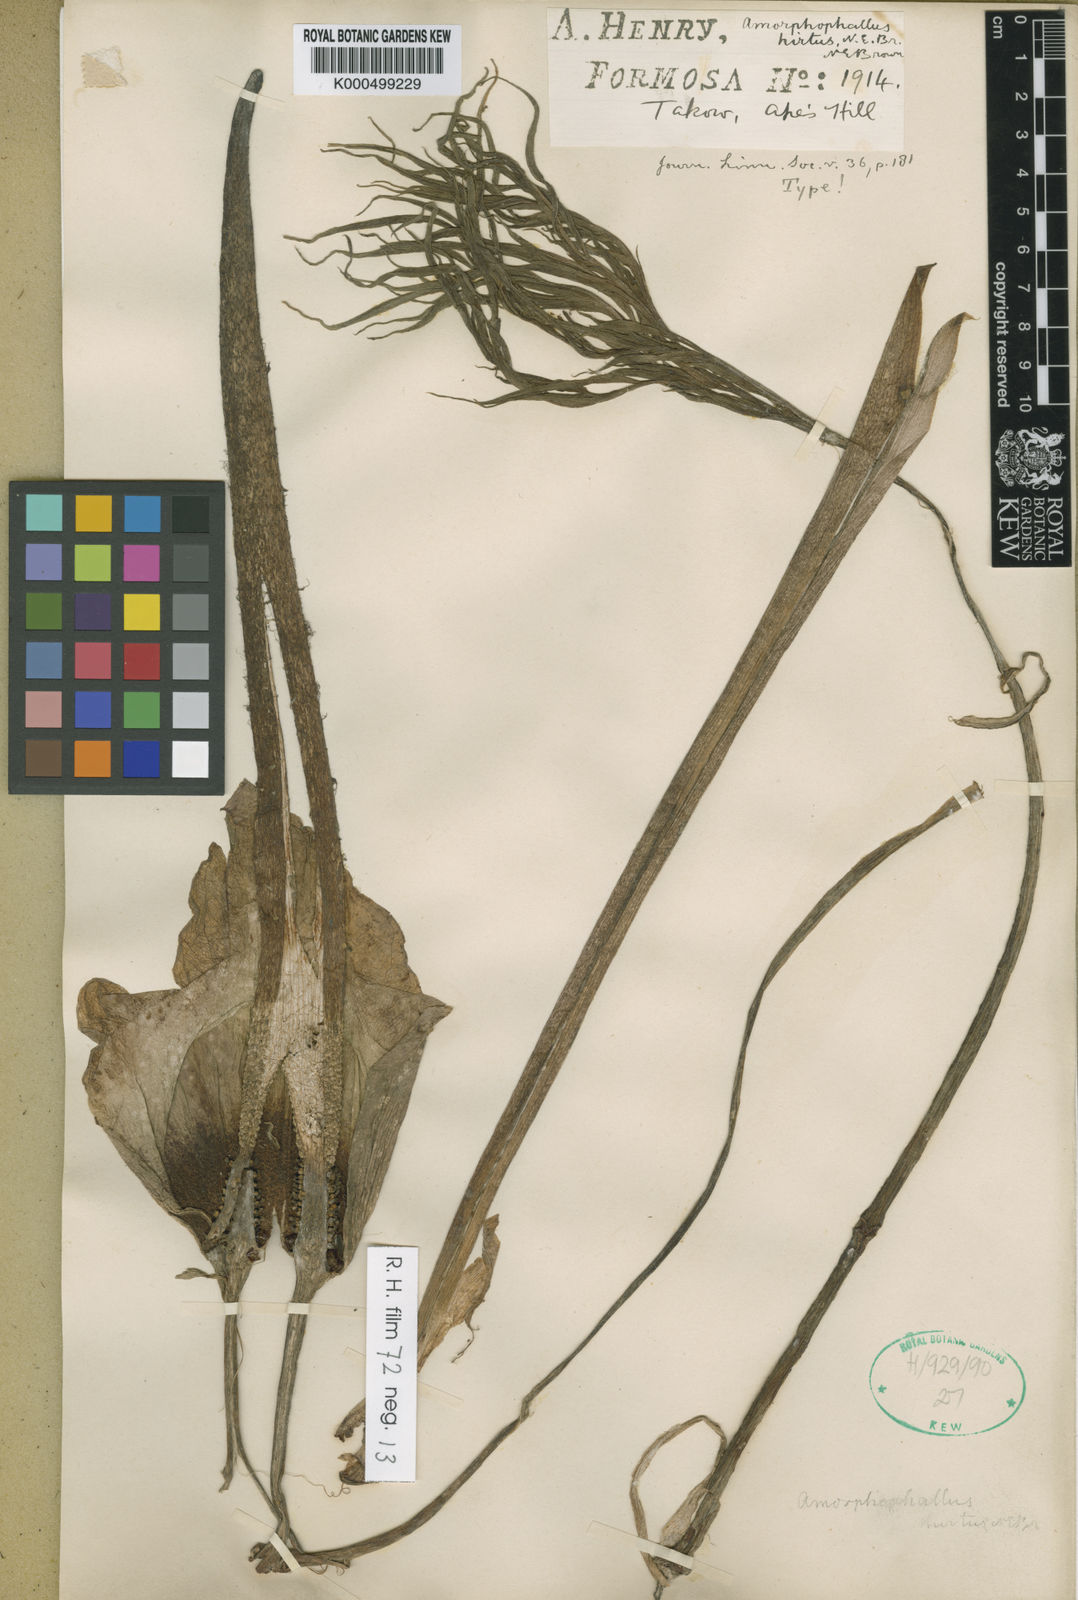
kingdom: Plantae
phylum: Tracheophyta
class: Liliopsida
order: Alismatales
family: Araceae
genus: Amorphophallus
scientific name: Amorphophallus hirtus
